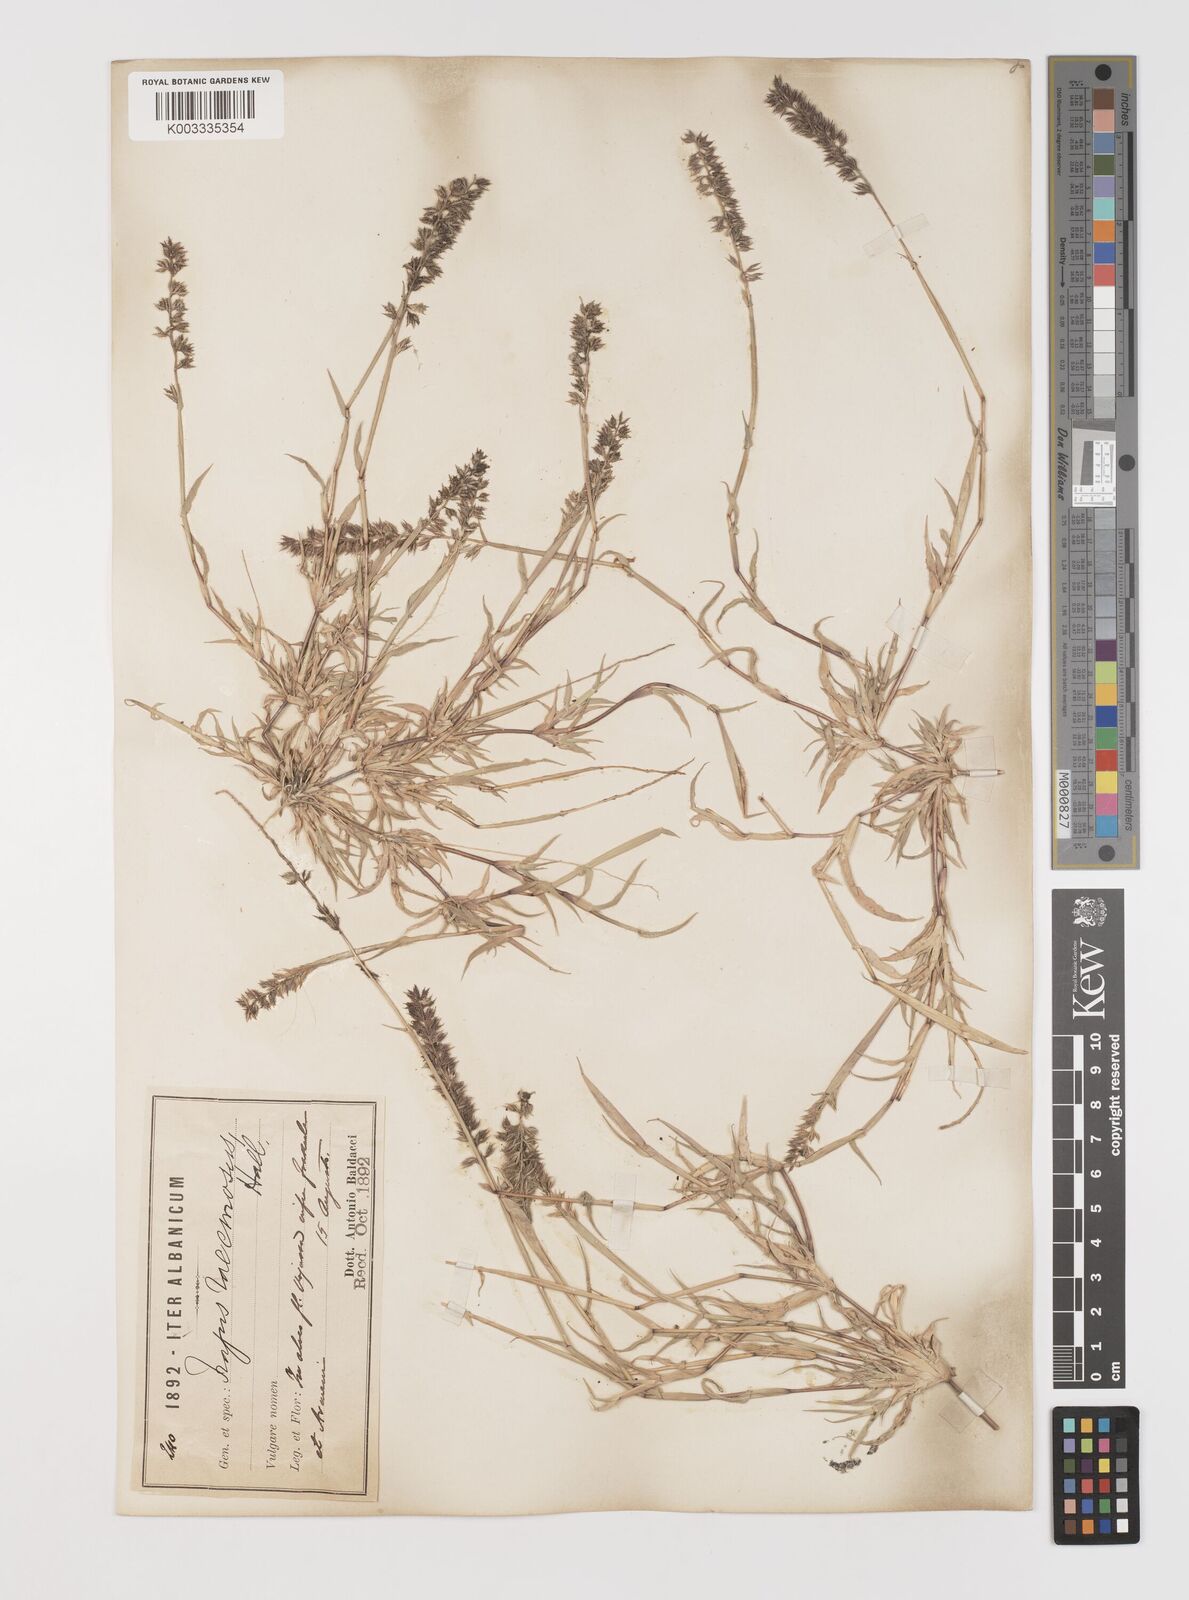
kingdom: Plantae
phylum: Tracheophyta
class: Liliopsida
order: Poales
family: Poaceae
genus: Tragus
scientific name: Tragus racemosus
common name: European bur-grass
